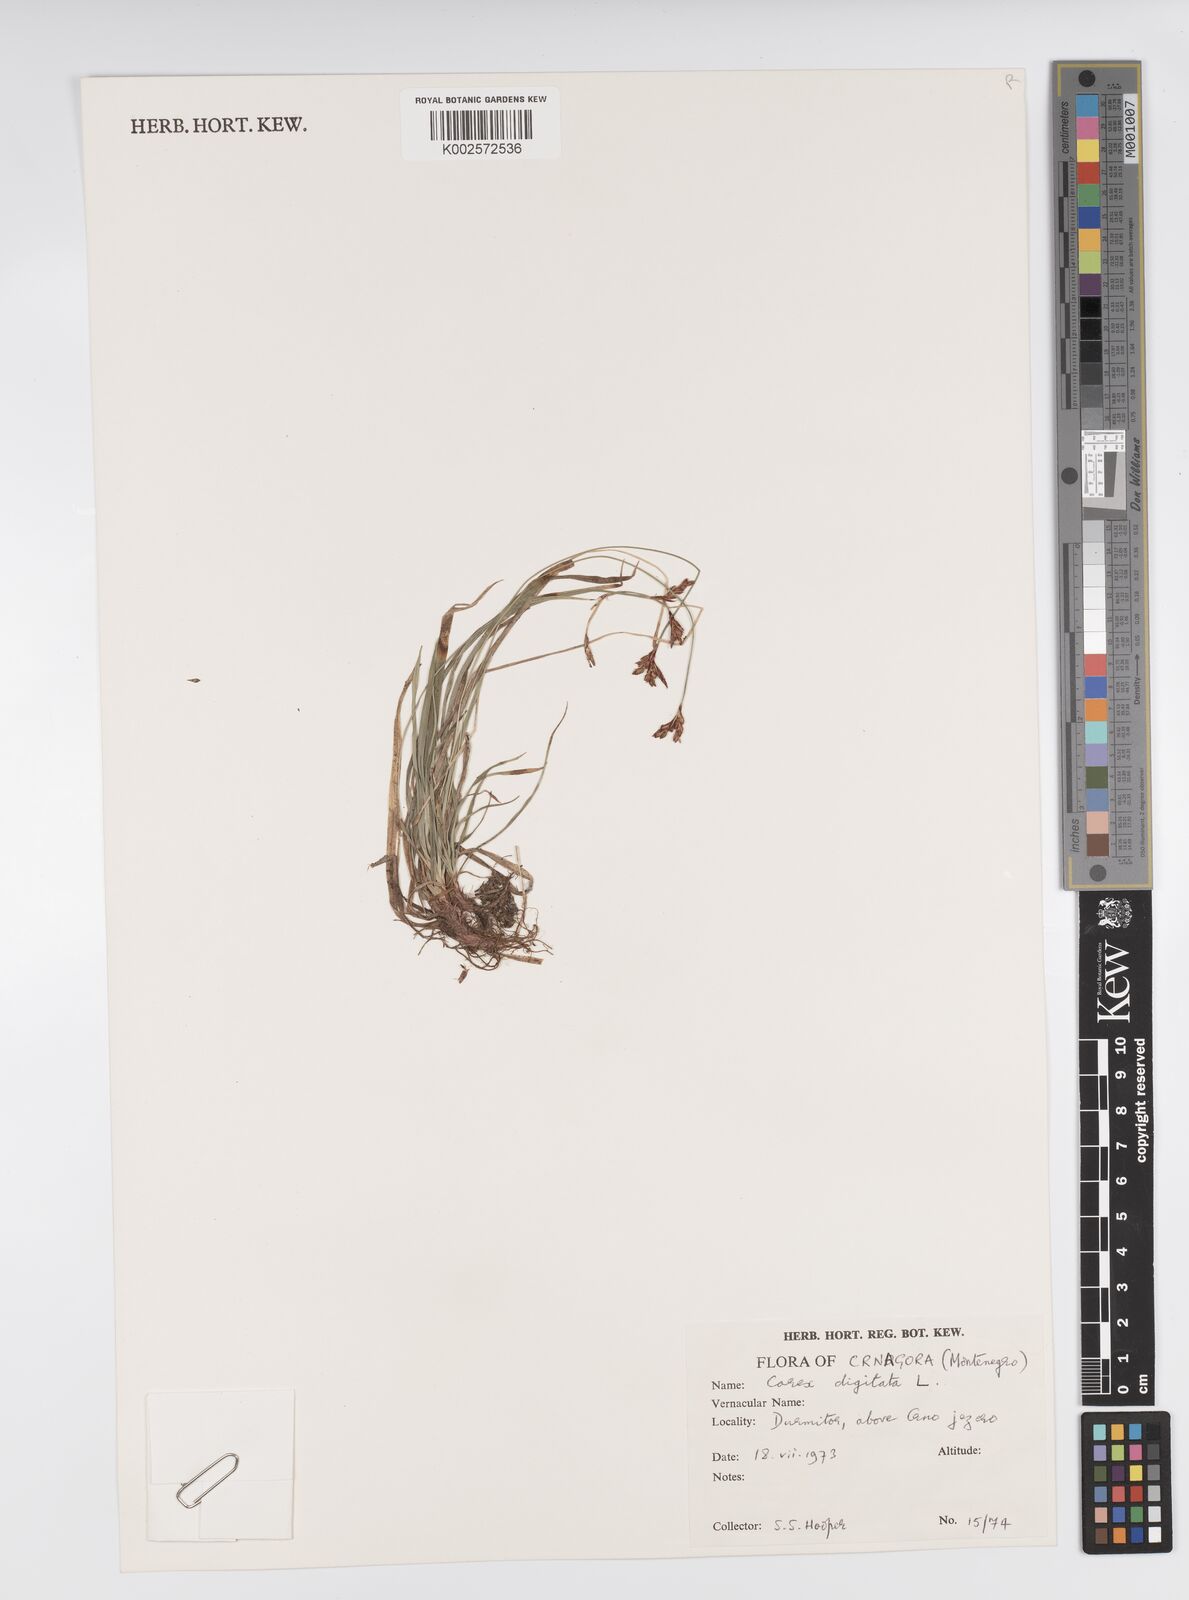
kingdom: Plantae
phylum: Tracheophyta
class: Liliopsida
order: Poales
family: Cyperaceae
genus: Carex
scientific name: Carex digitata
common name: Fingered sedge
